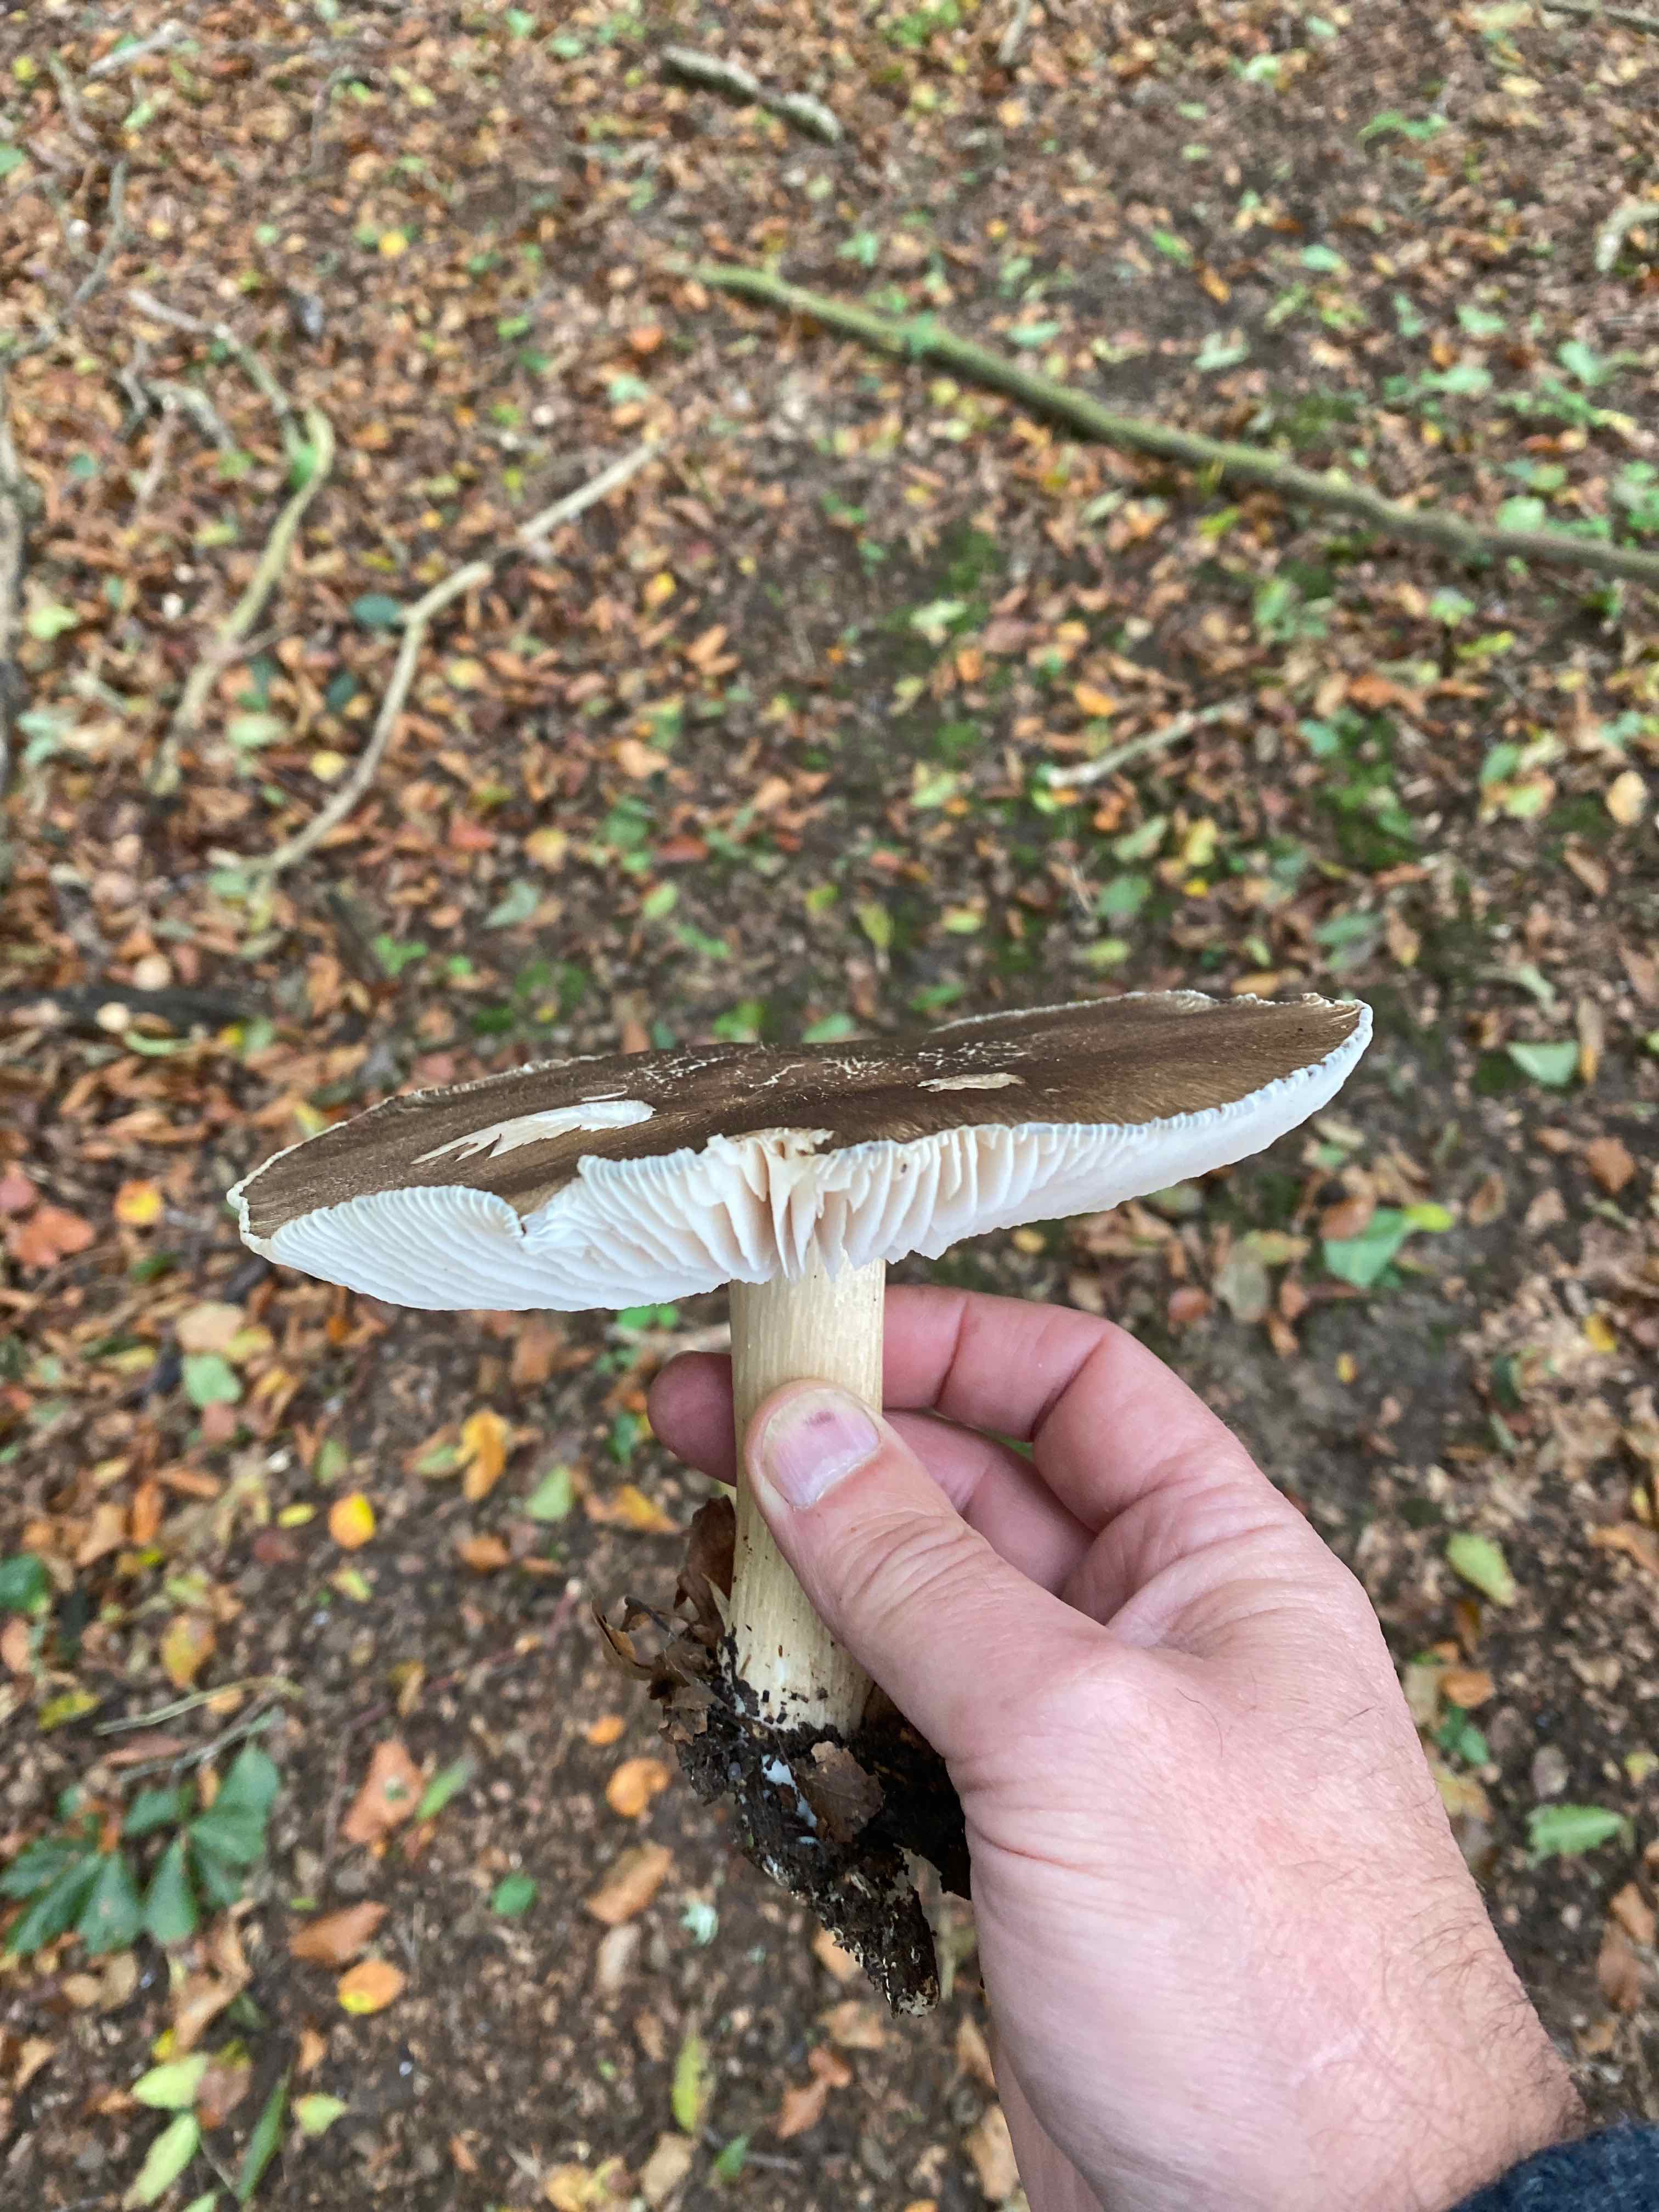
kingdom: Fungi
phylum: Basidiomycota
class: Agaricomycetes
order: Agaricales
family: Tricholomataceae
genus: Megacollybia
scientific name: Megacollybia platyphylla
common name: bredbladet væbnerhat
